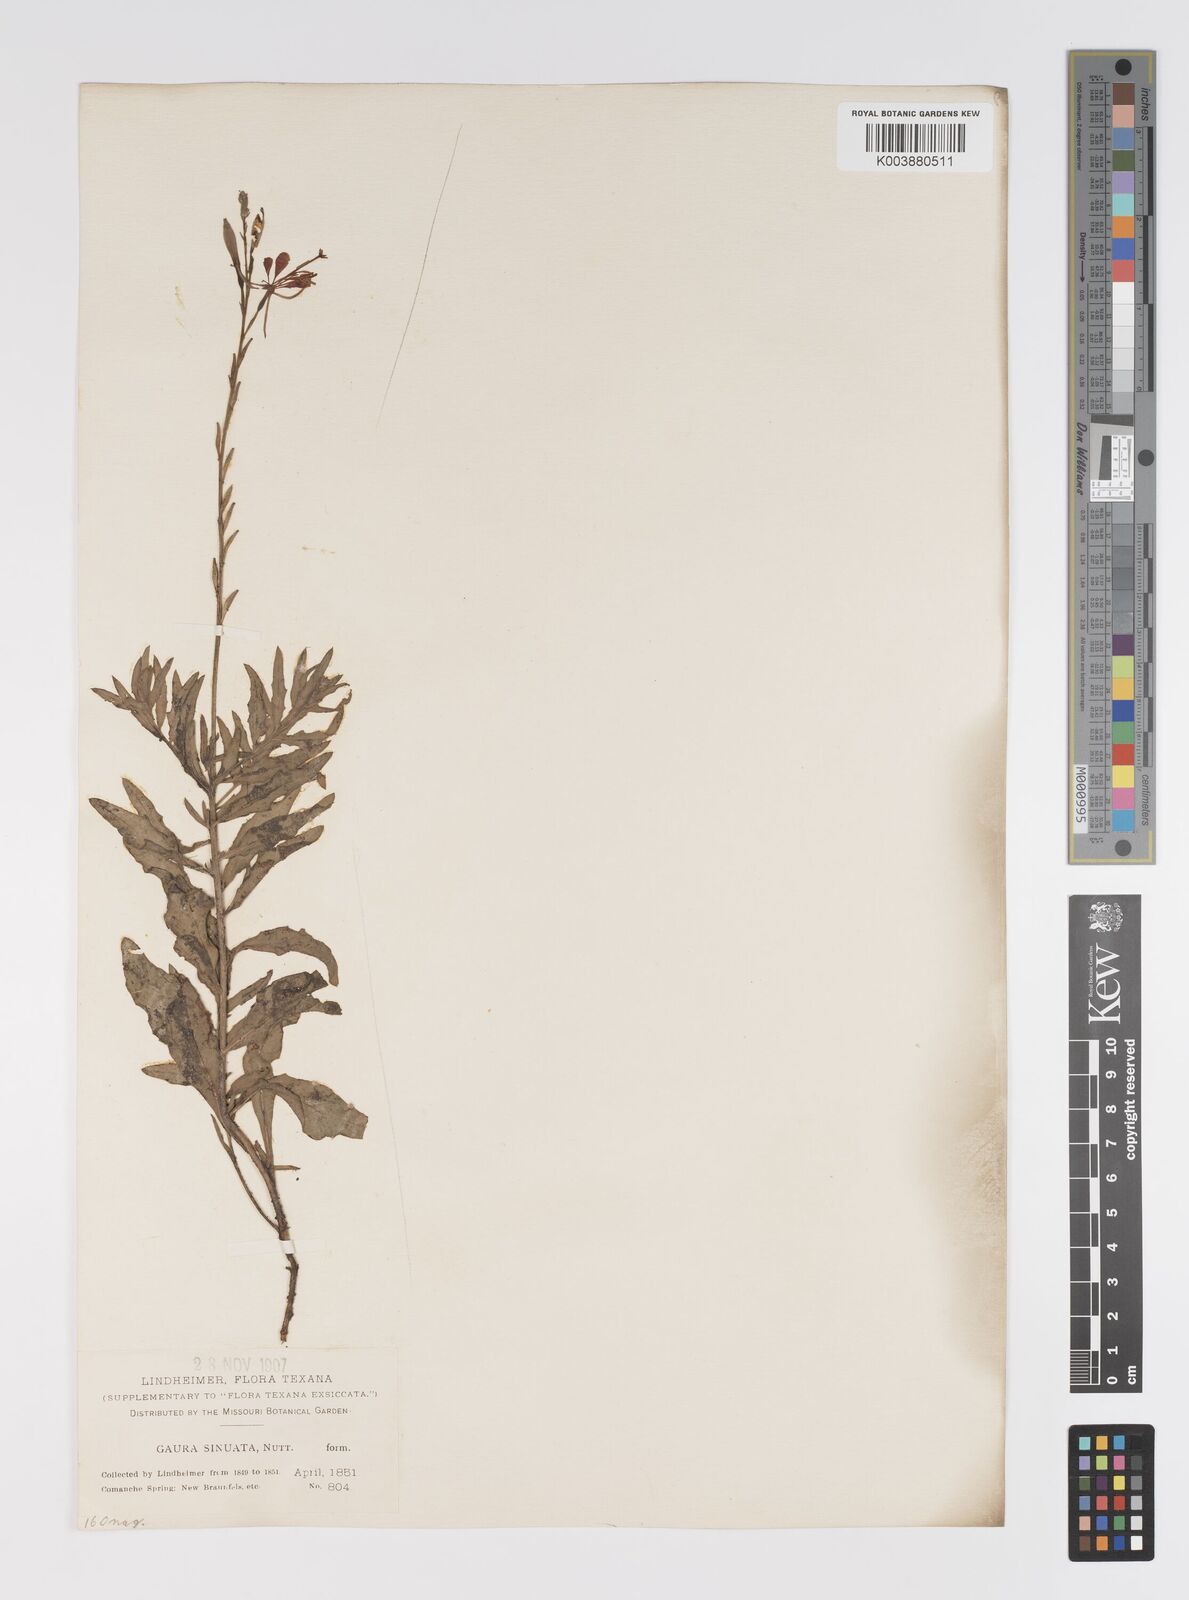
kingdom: Plantae
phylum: Tracheophyta
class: Magnoliopsida
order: Myrtales
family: Onagraceae
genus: Oenothera
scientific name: Oenothera sinuosa
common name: Wavyleaf beeblossom
